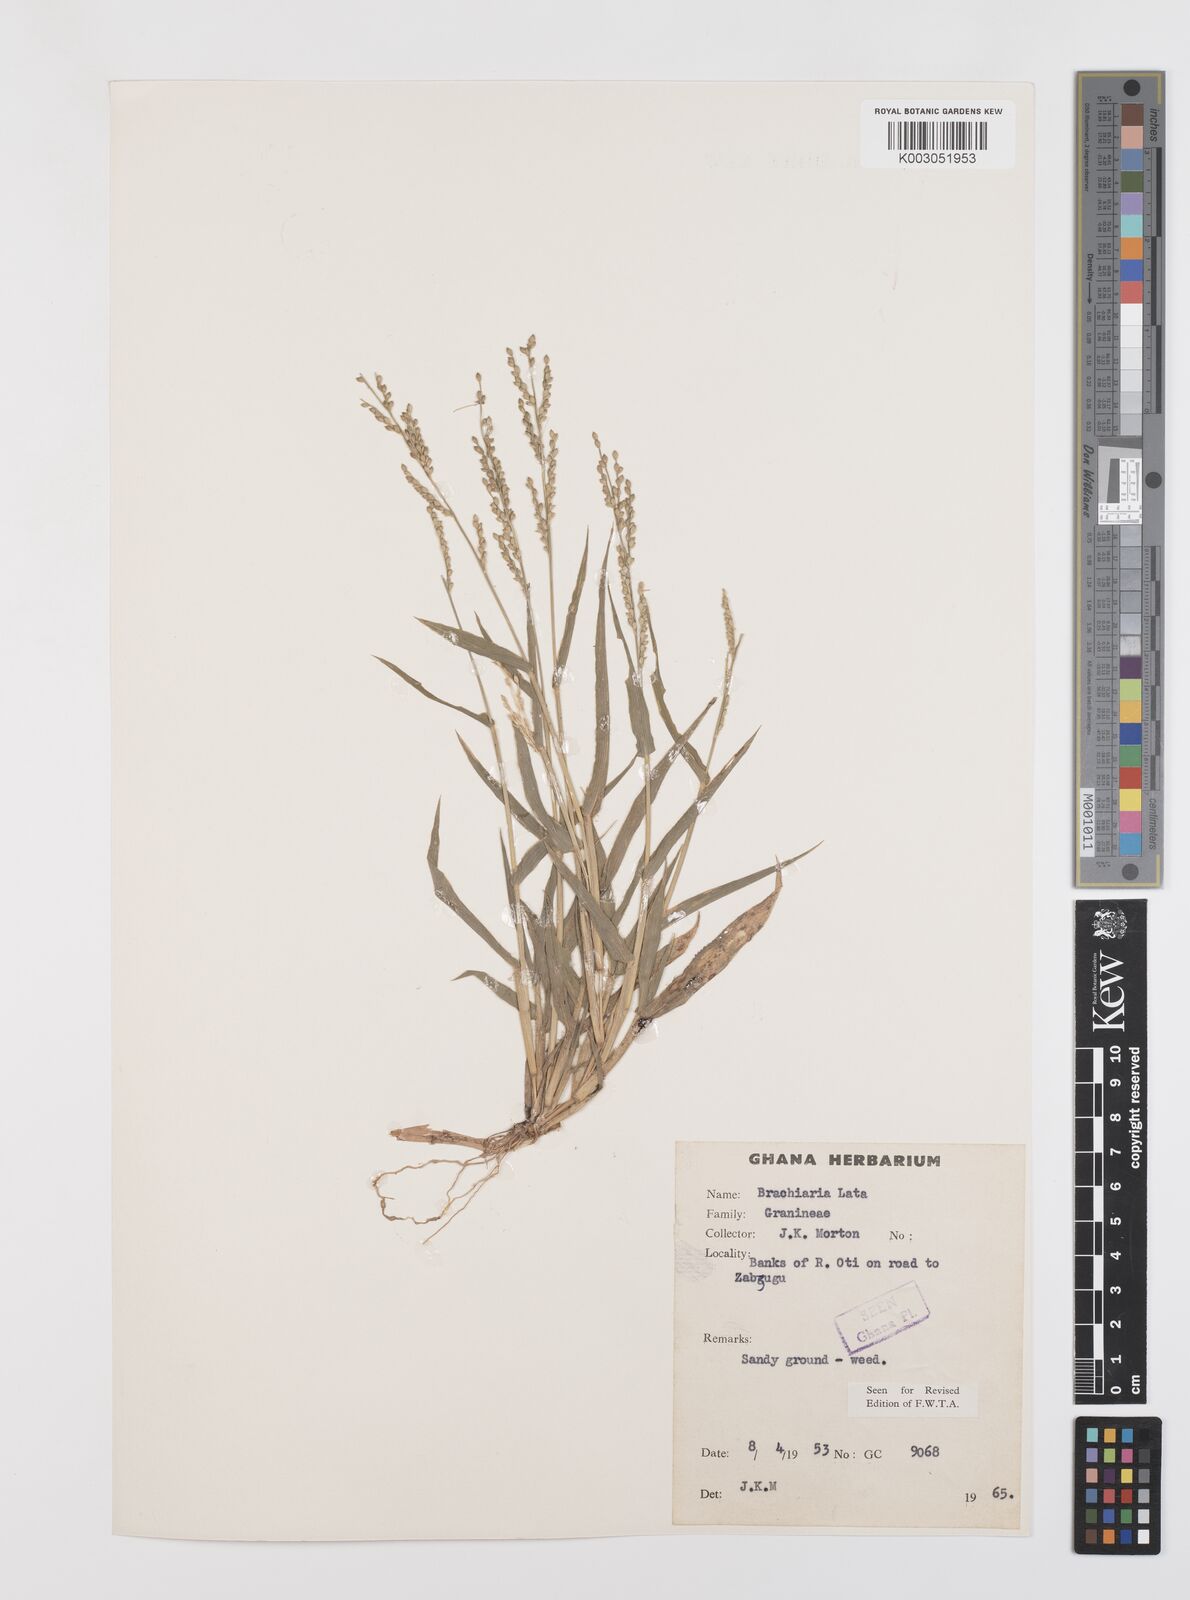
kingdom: Plantae
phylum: Tracheophyta
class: Liliopsida
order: Poales
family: Poaceae
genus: Urochloa
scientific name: Urochloa lata
